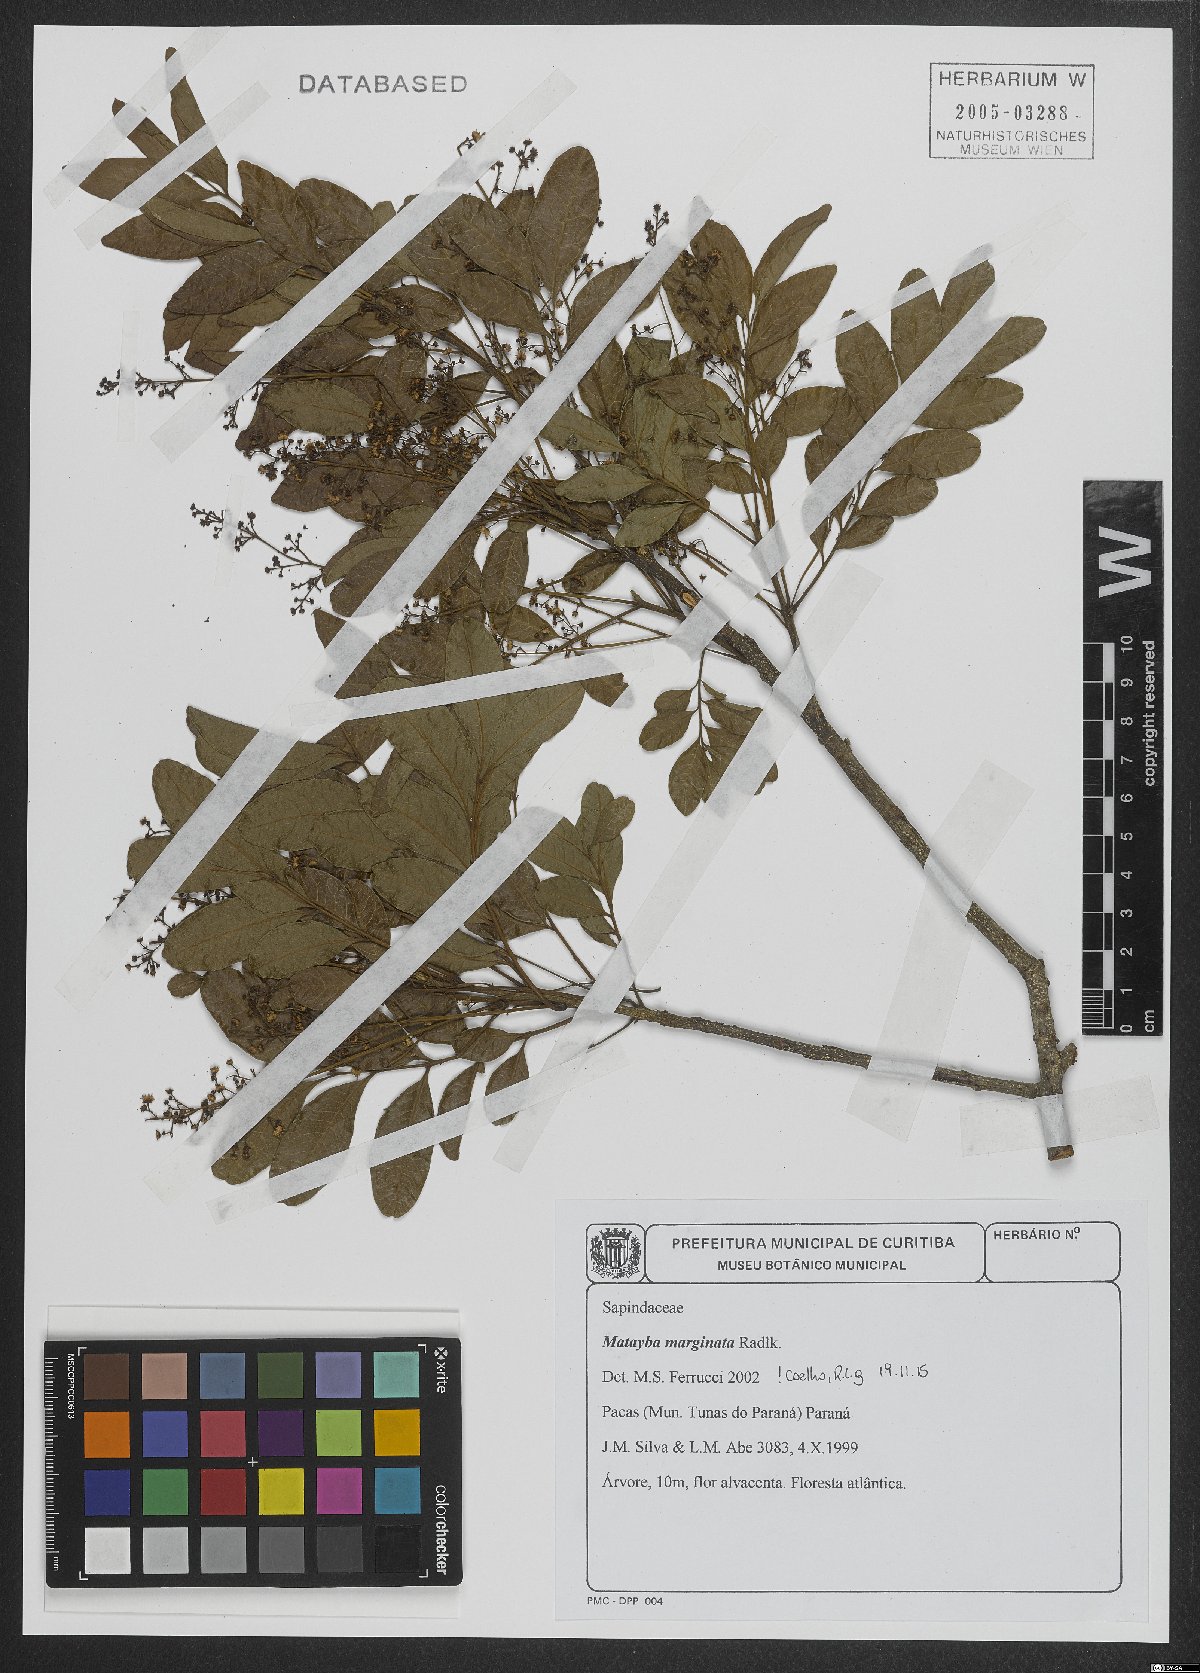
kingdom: Plantae
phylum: Tracheophyta
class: Magnoliopsida
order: Sapindales
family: Sapindaceae
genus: Matayba
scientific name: Matayba marginata
